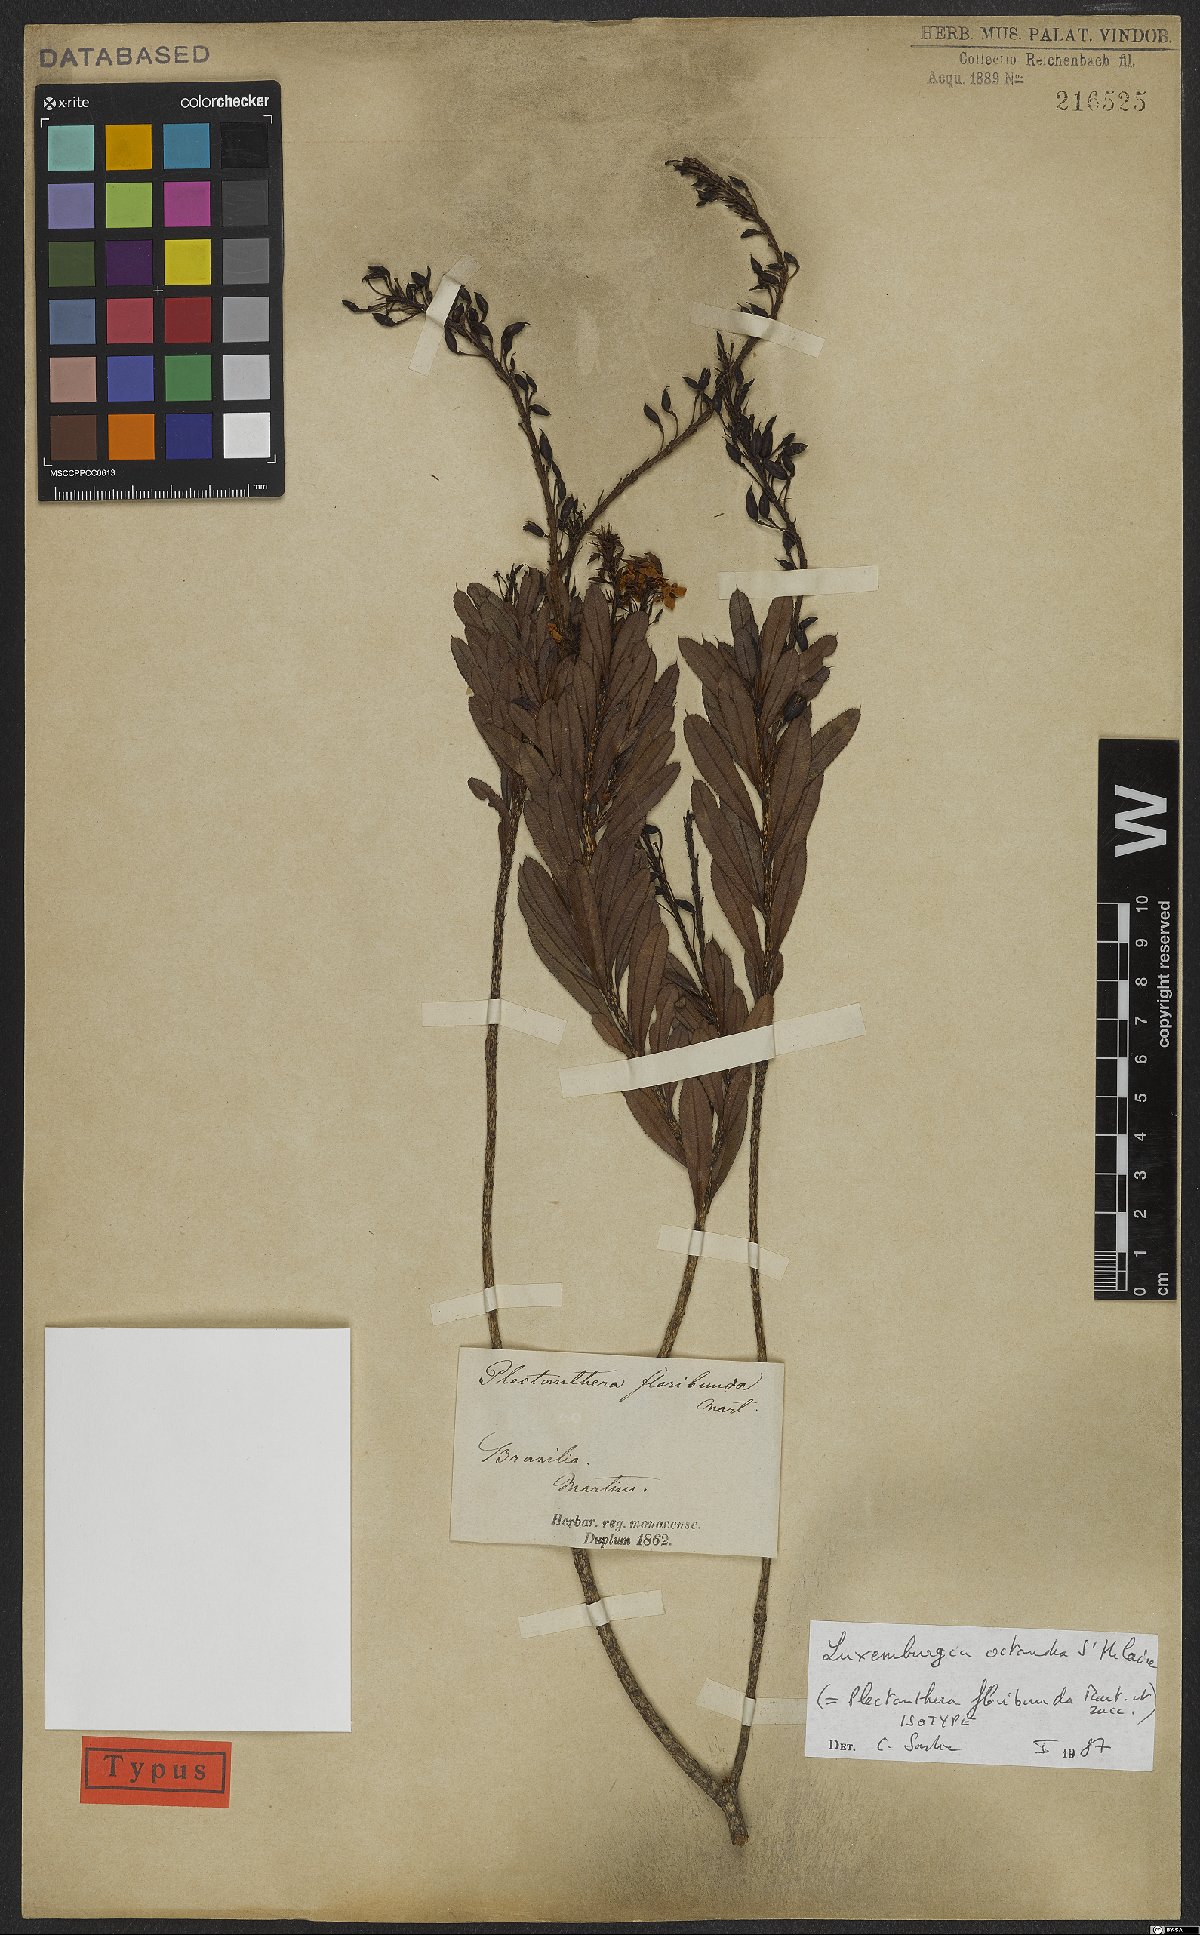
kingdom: Plantae
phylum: Tracheophyta
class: Magnoliopsida
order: Malpighiales
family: Ochnaceae
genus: Luxemburgia
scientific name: Luxemburgia octandra
